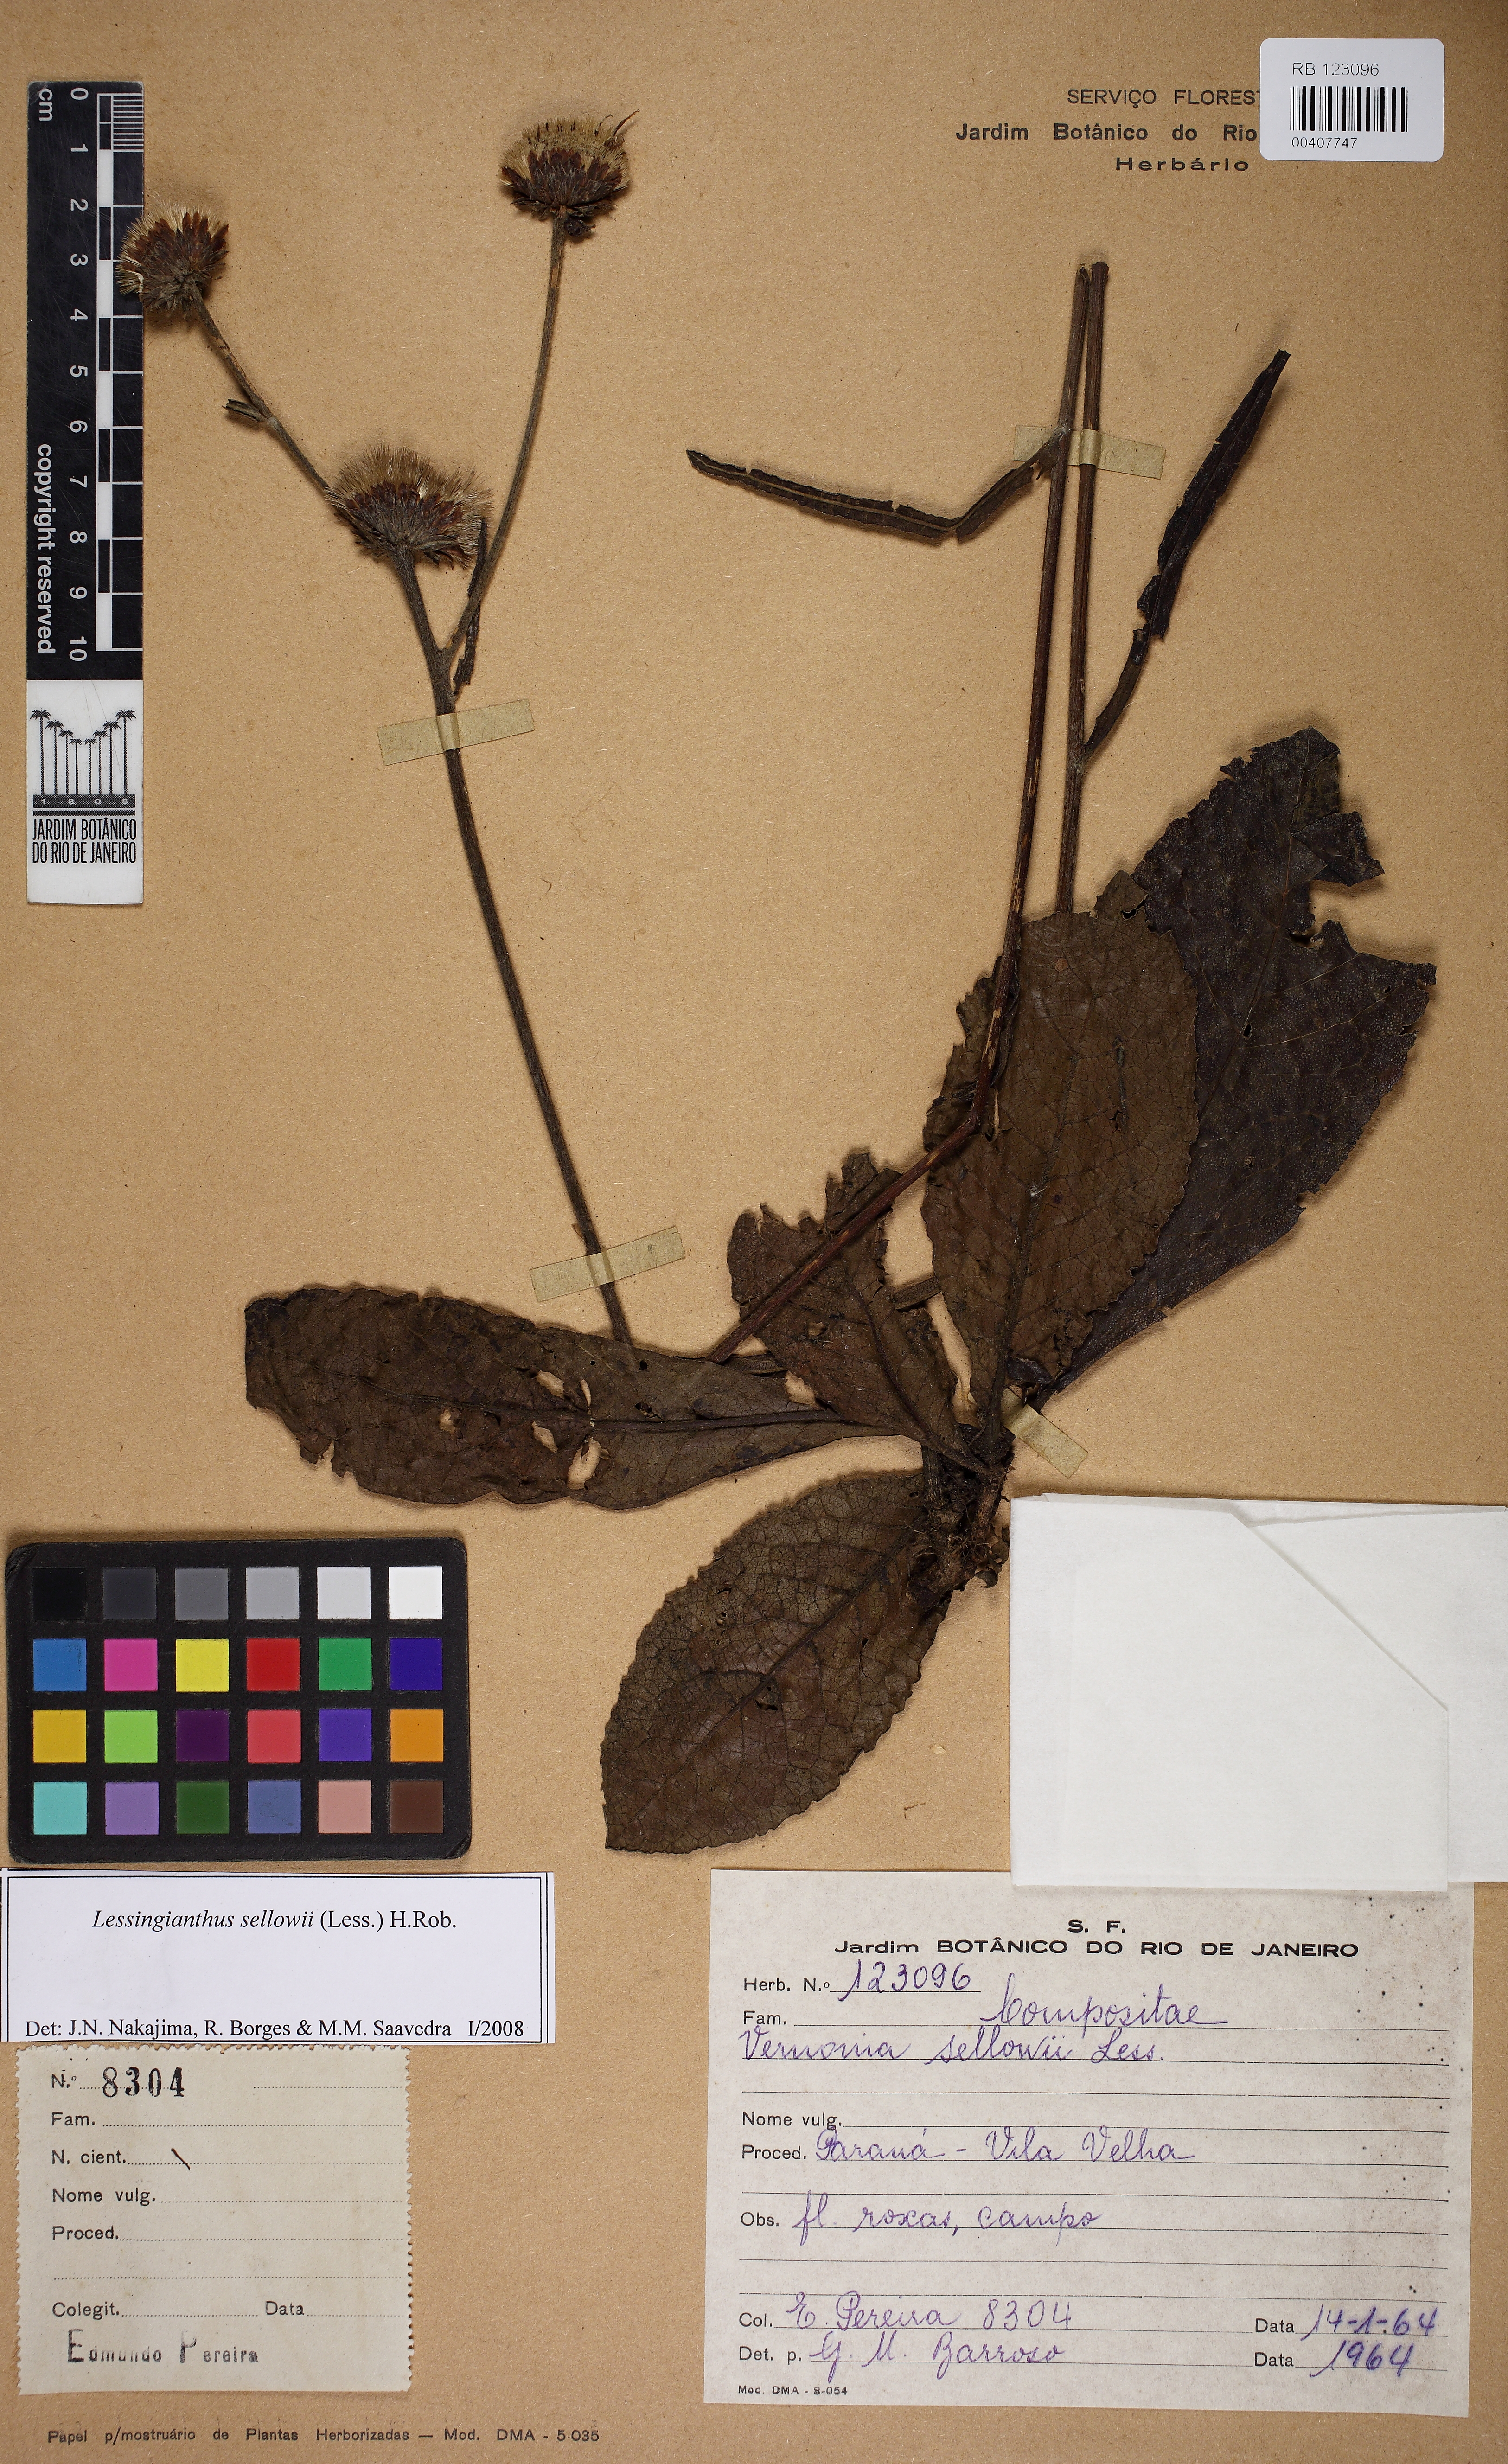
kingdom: Plantae
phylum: Tracheophyta
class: Magnoliopsida
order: Asterales
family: Asteraceae
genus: Lessingianthus
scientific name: Lessingianthus sellowii
